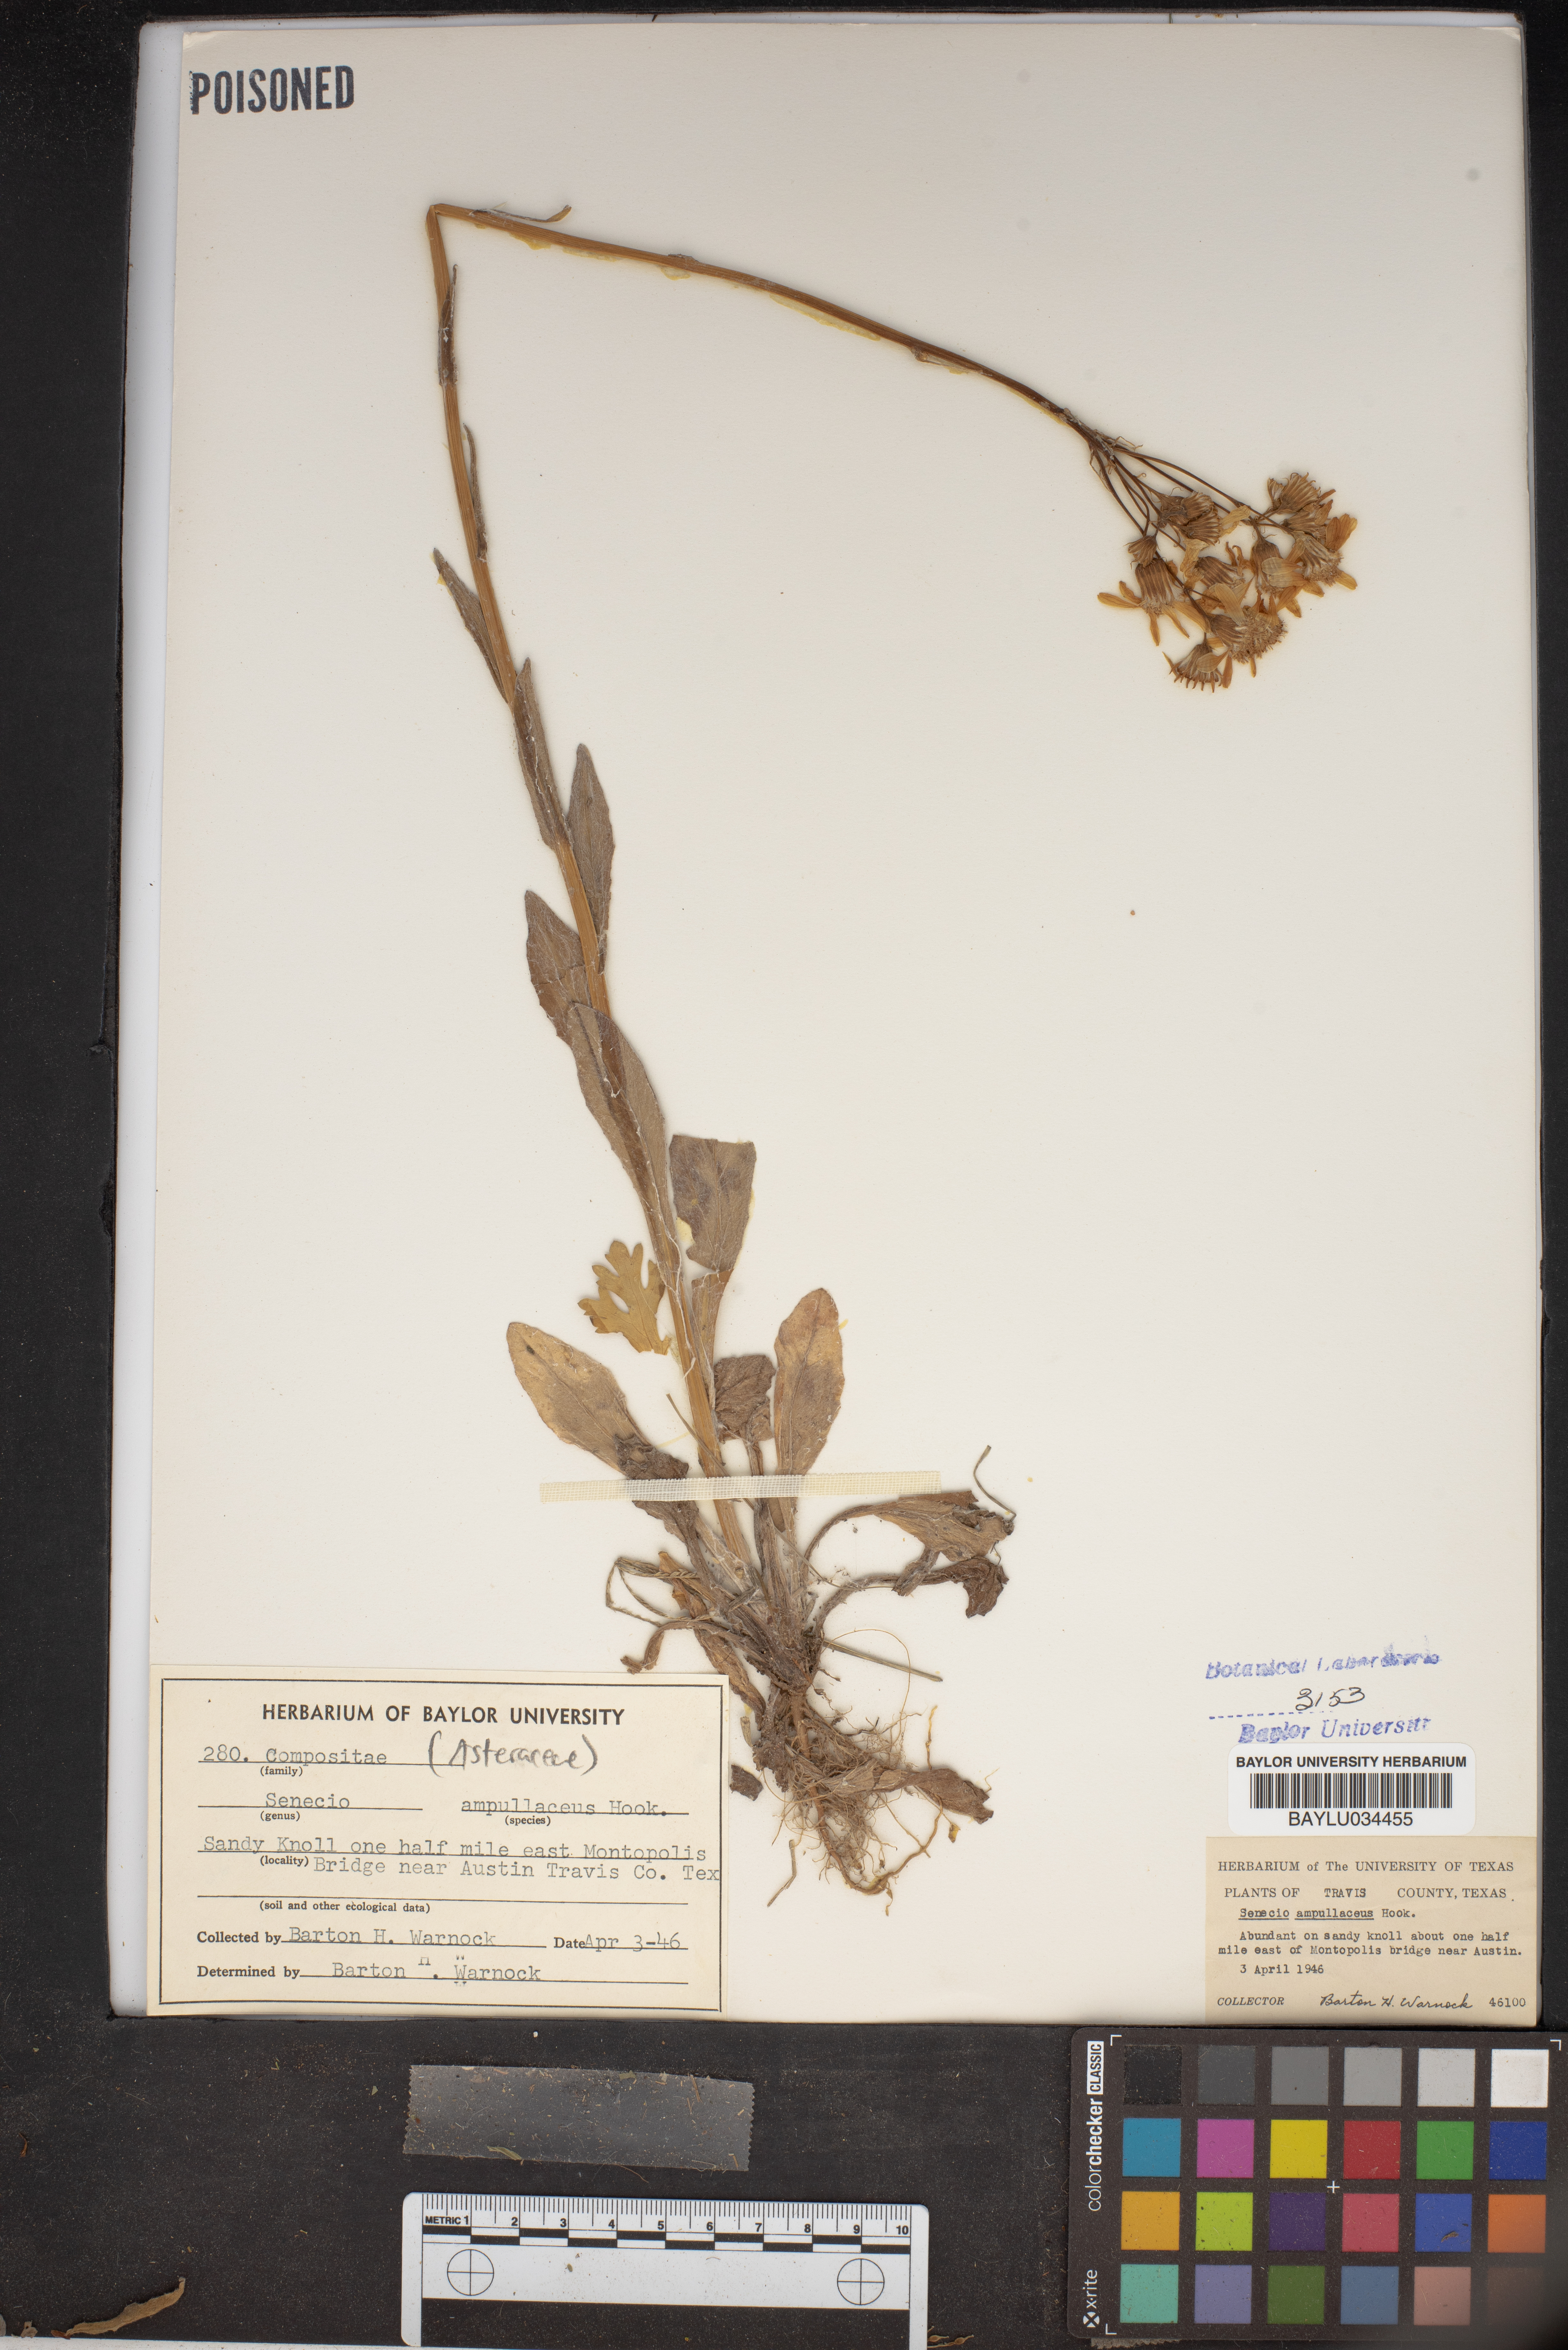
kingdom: Plantae
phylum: Tracheophyta
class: Magnoliopsida
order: Asterales
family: Asteraceae
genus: Senecio
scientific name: Senecio ampullaceus
